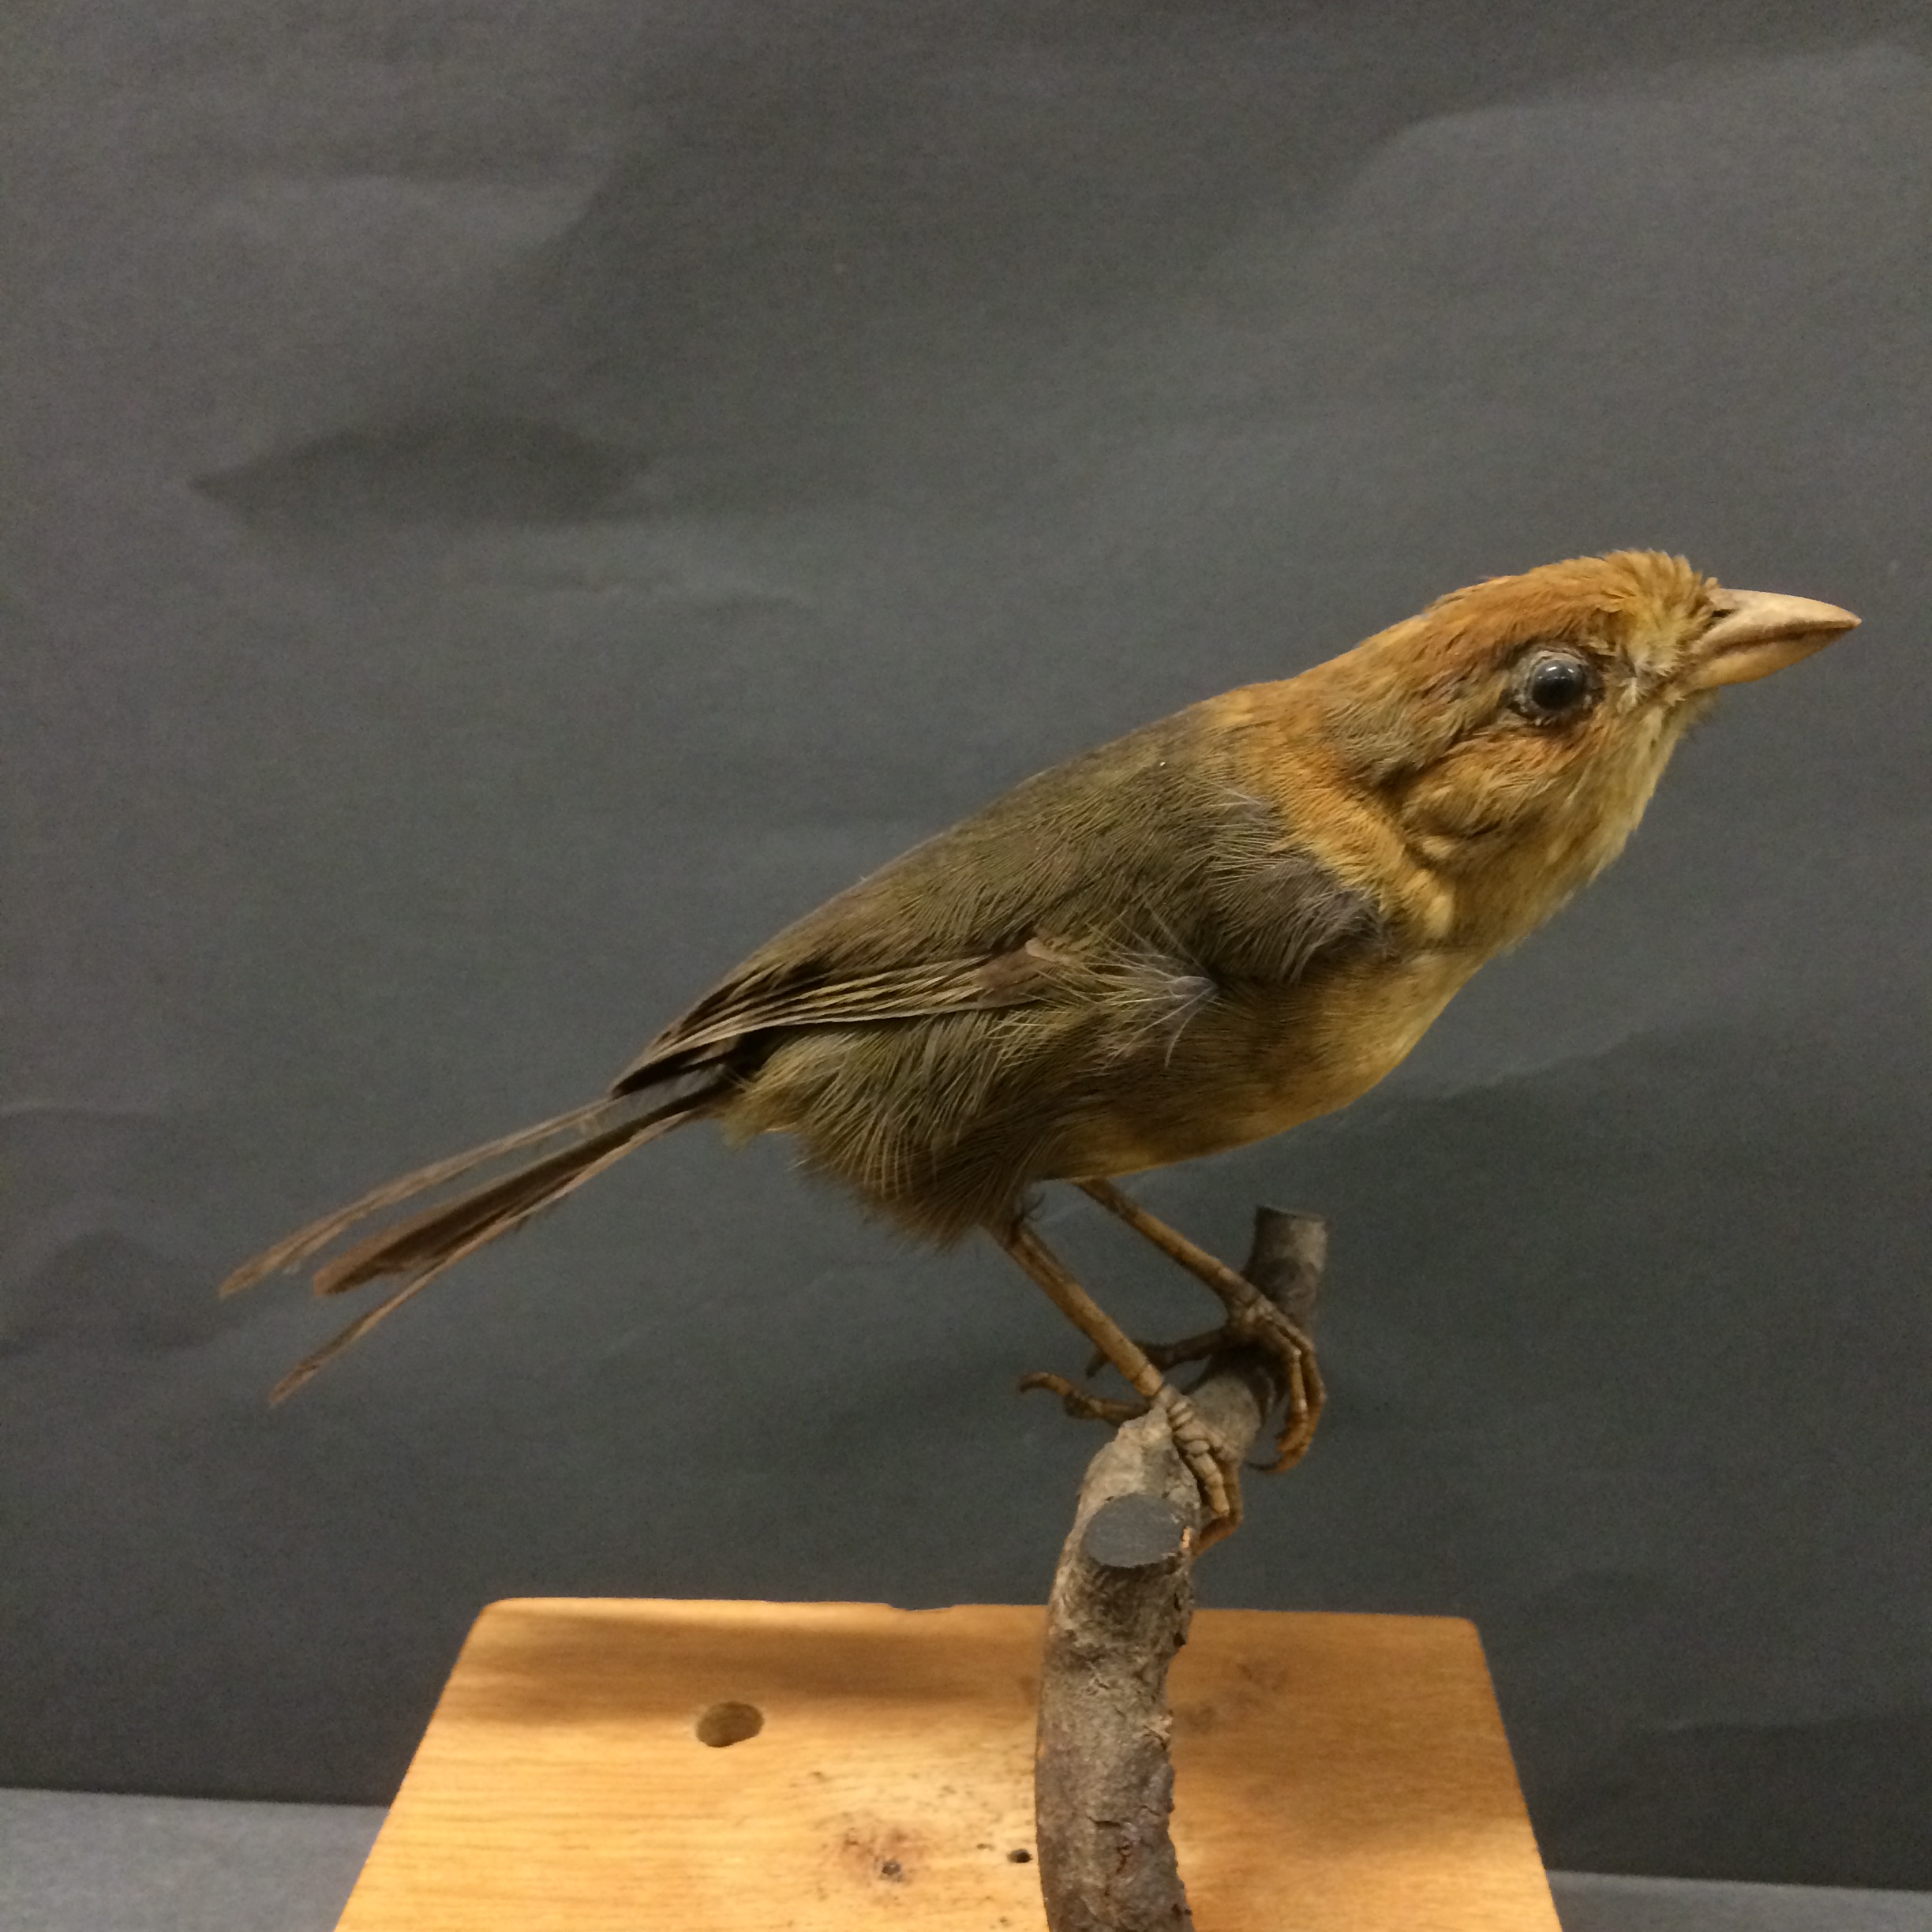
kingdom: Animalia
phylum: Chordata
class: Aves
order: Passeriformes
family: Passerellidae
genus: Atlapetes
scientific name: Atlapetes semirufus
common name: Ochre-breasted brushfinch
